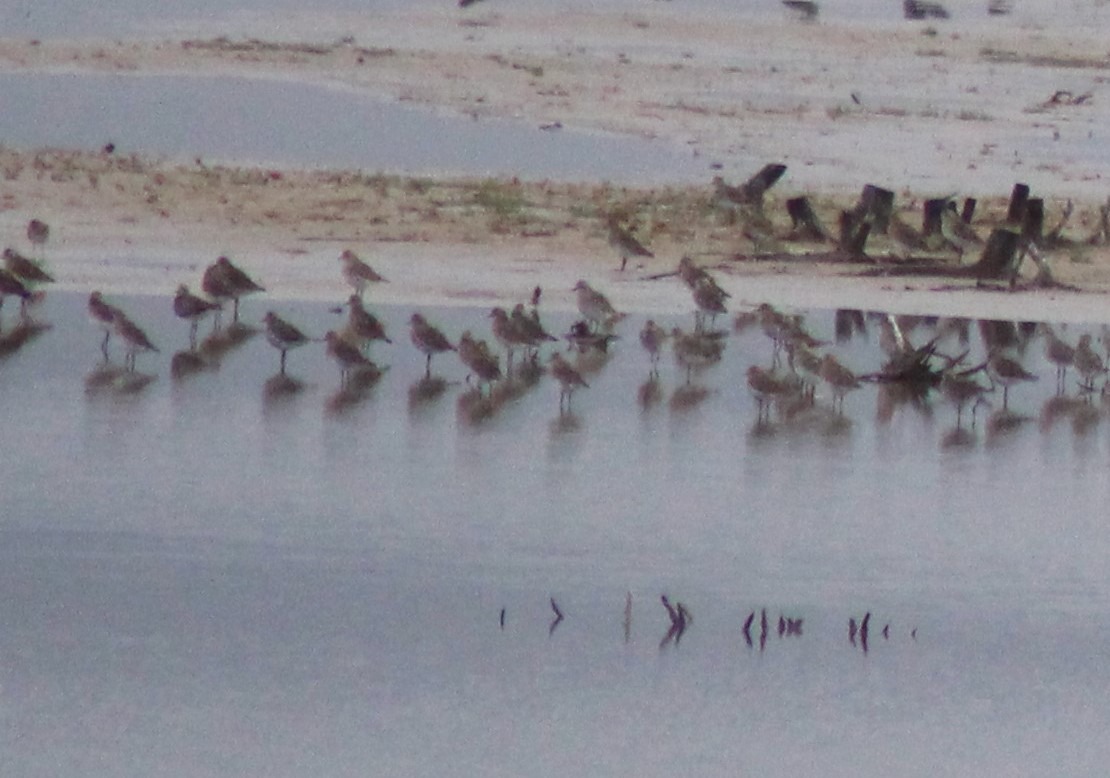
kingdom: Animalia
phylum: Chordata
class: Aves
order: Charadriiformes
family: Charadriidae
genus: Pluvialis
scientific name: Pluvialis apricaria
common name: Hjejle
